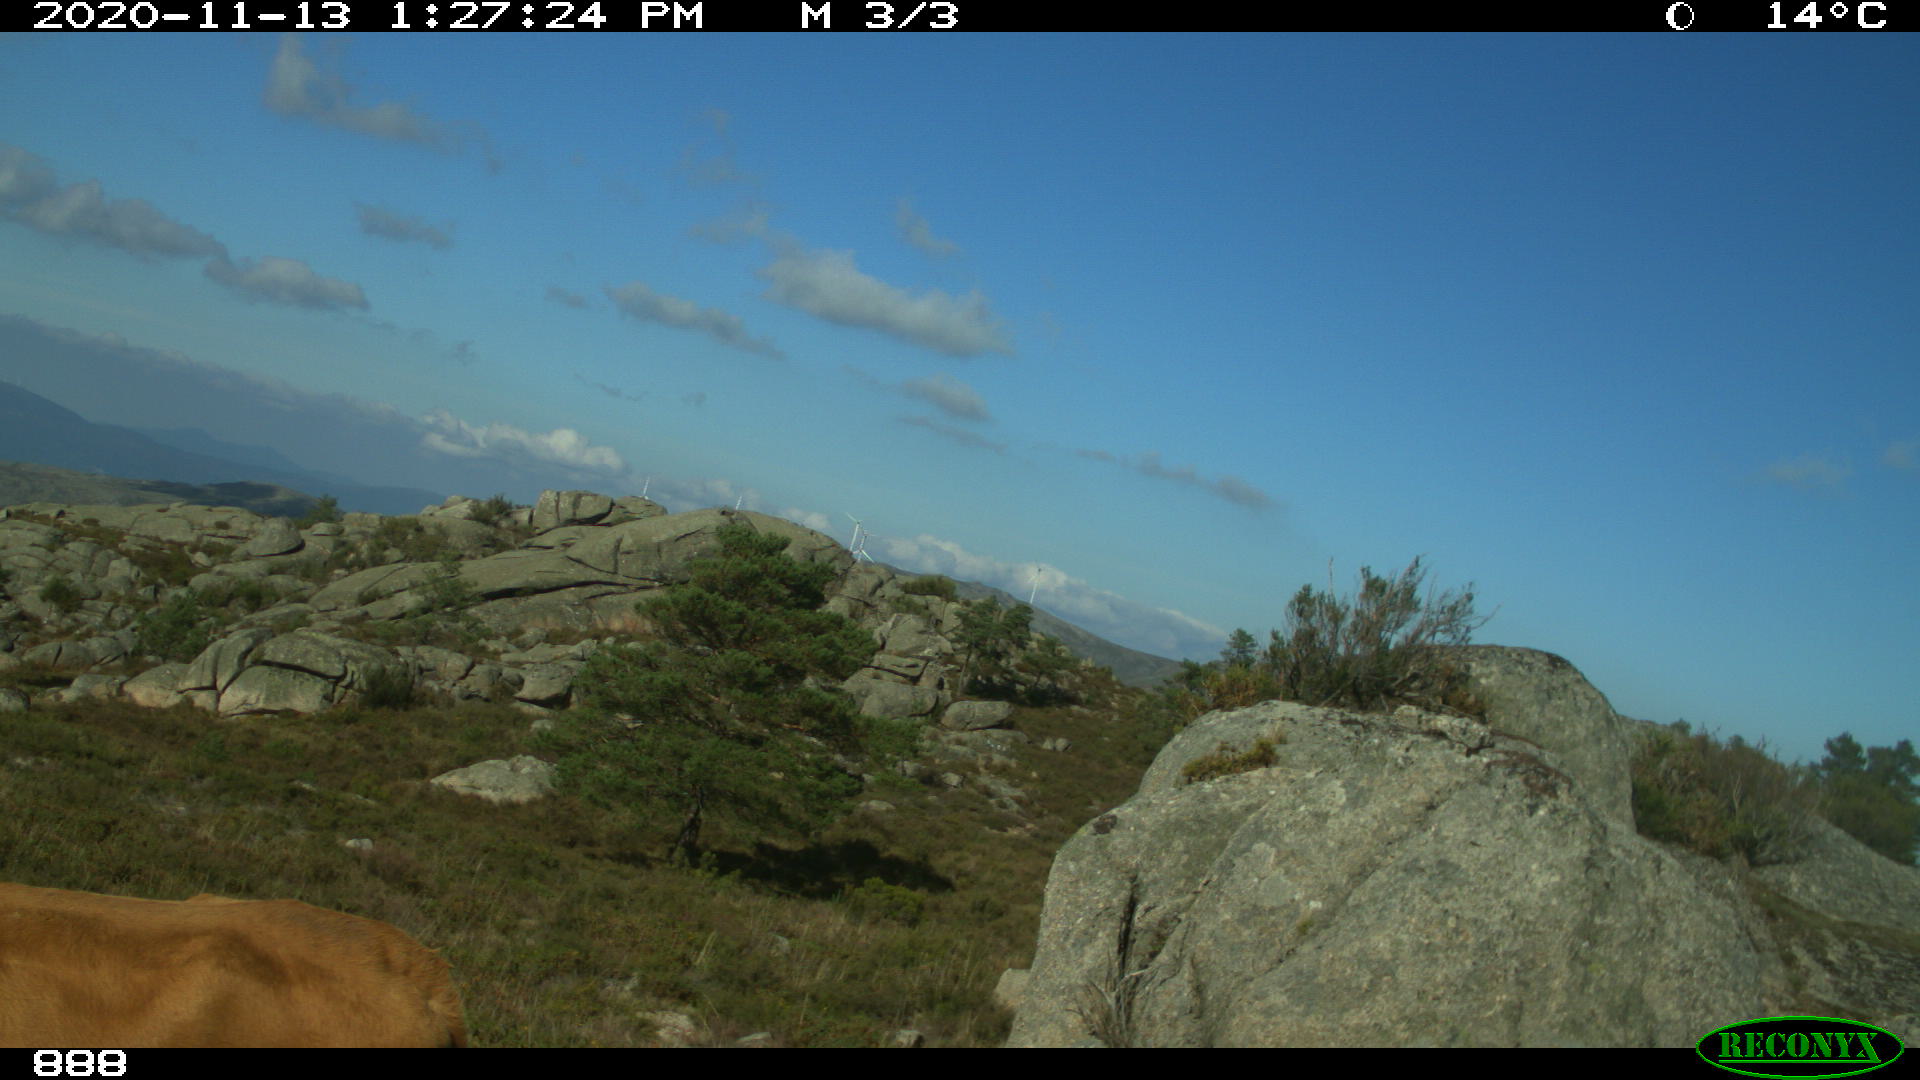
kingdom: Animalia
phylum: Chordata
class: Mammalia
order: Artiodactyla
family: Bovidae
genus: Bos
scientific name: Bos taurus
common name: Domesticated cattle
